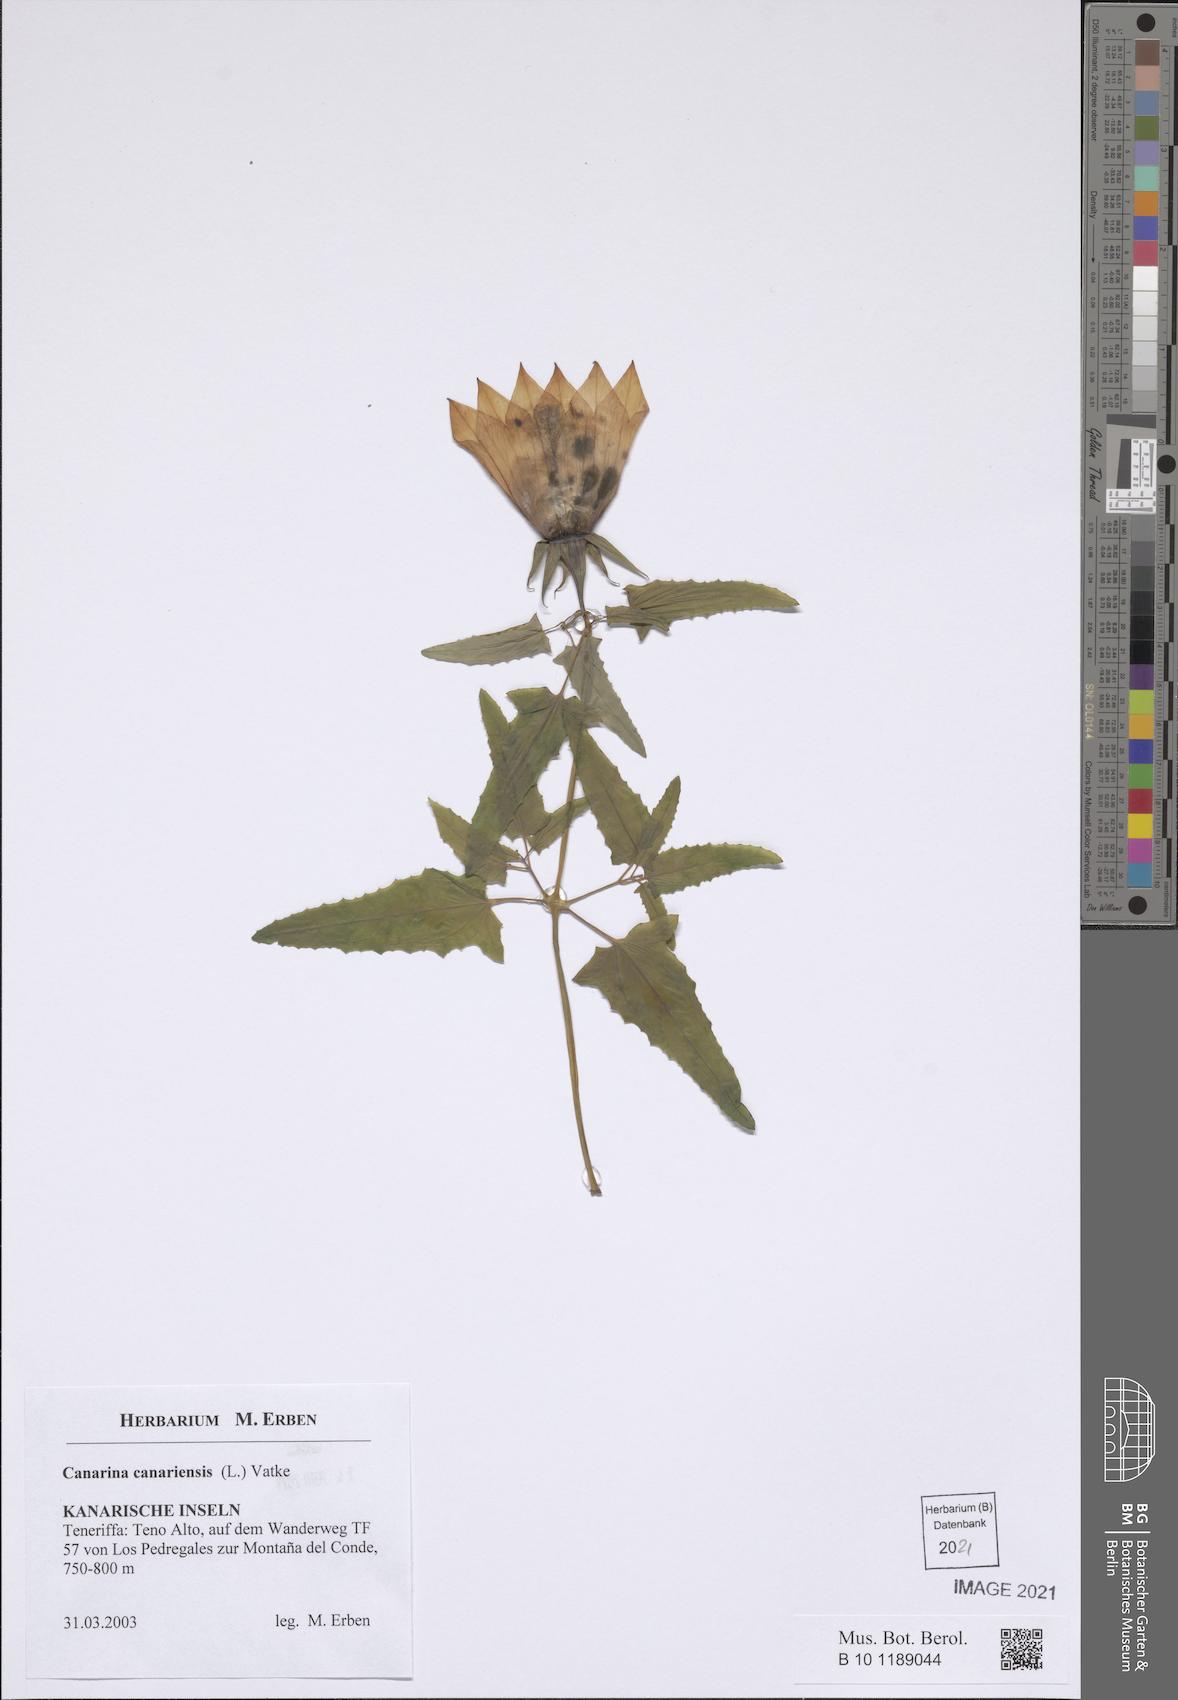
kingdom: Plantae
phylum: Tracheophyta
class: Magnoliopsida
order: Asterales
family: Campanulaceae
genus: Canarina
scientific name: Canarina canariensis
